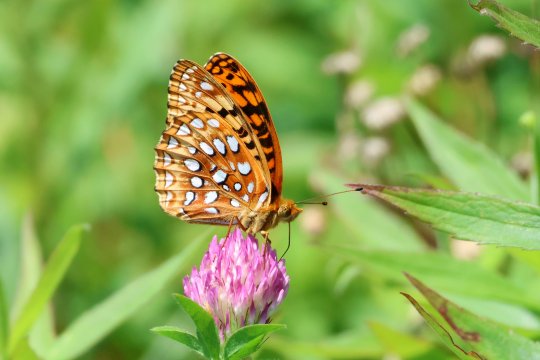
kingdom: Animalia
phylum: Arthropoda
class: Insecta
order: Lepidoptera
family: Nymphalidae
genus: Speyeria
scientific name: Speyeria aphrodite
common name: Aphrodite Fritillary
